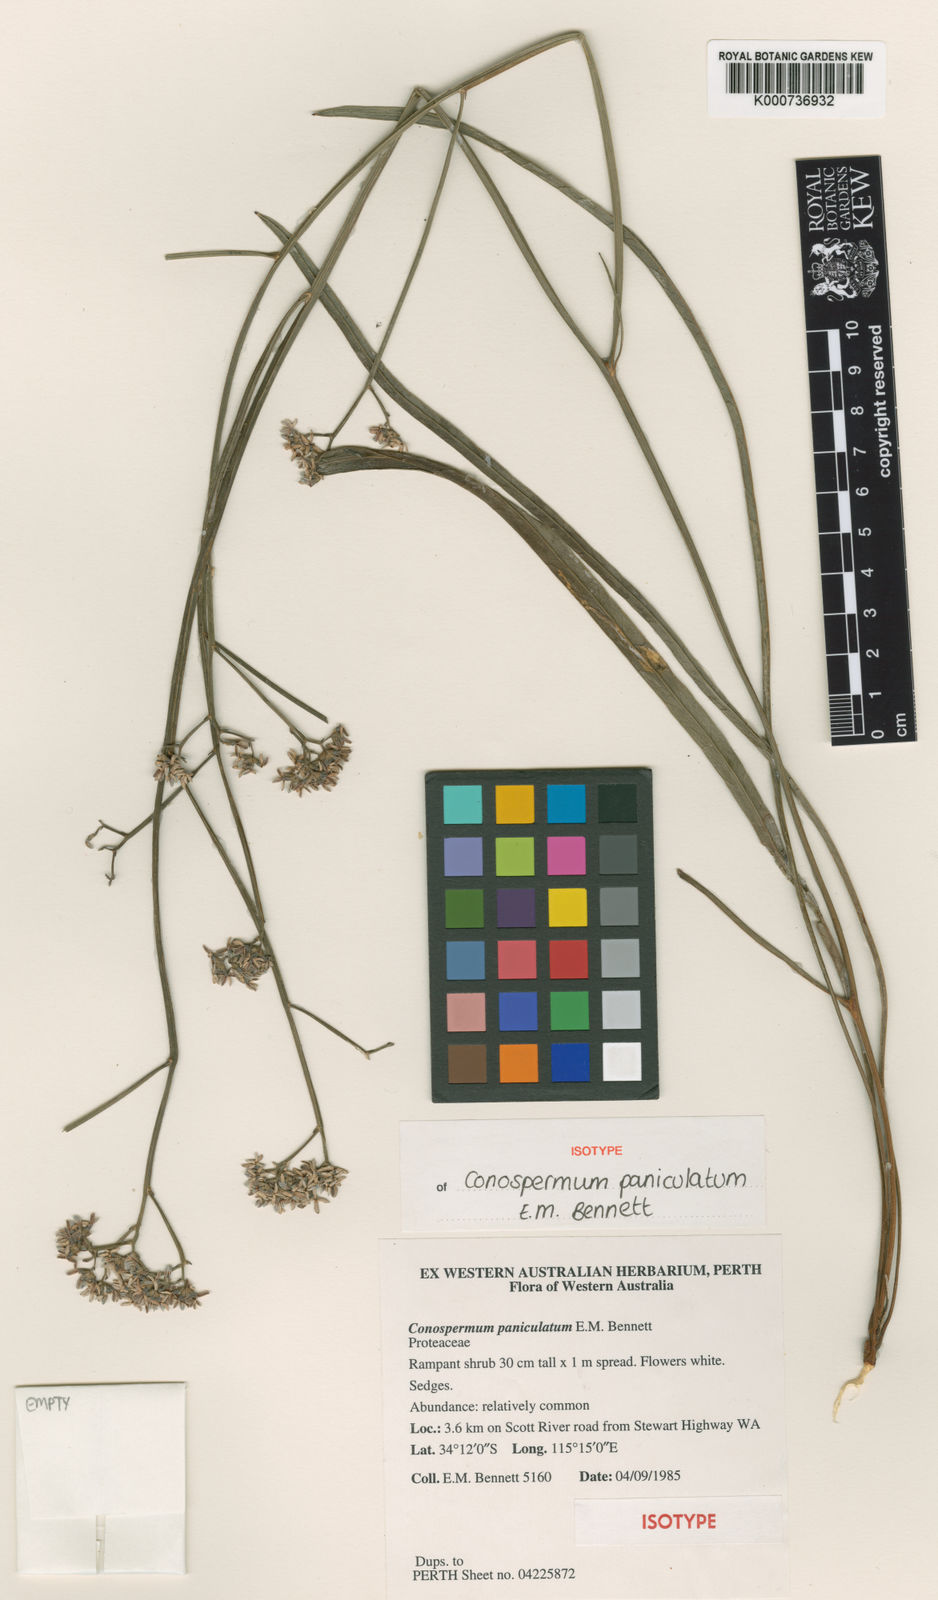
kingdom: Plantae
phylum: Tracheophyta
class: Magnoliopsida
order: Proteales
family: Proteaceae
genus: Conospermum
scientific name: Conospermum paniculatum
